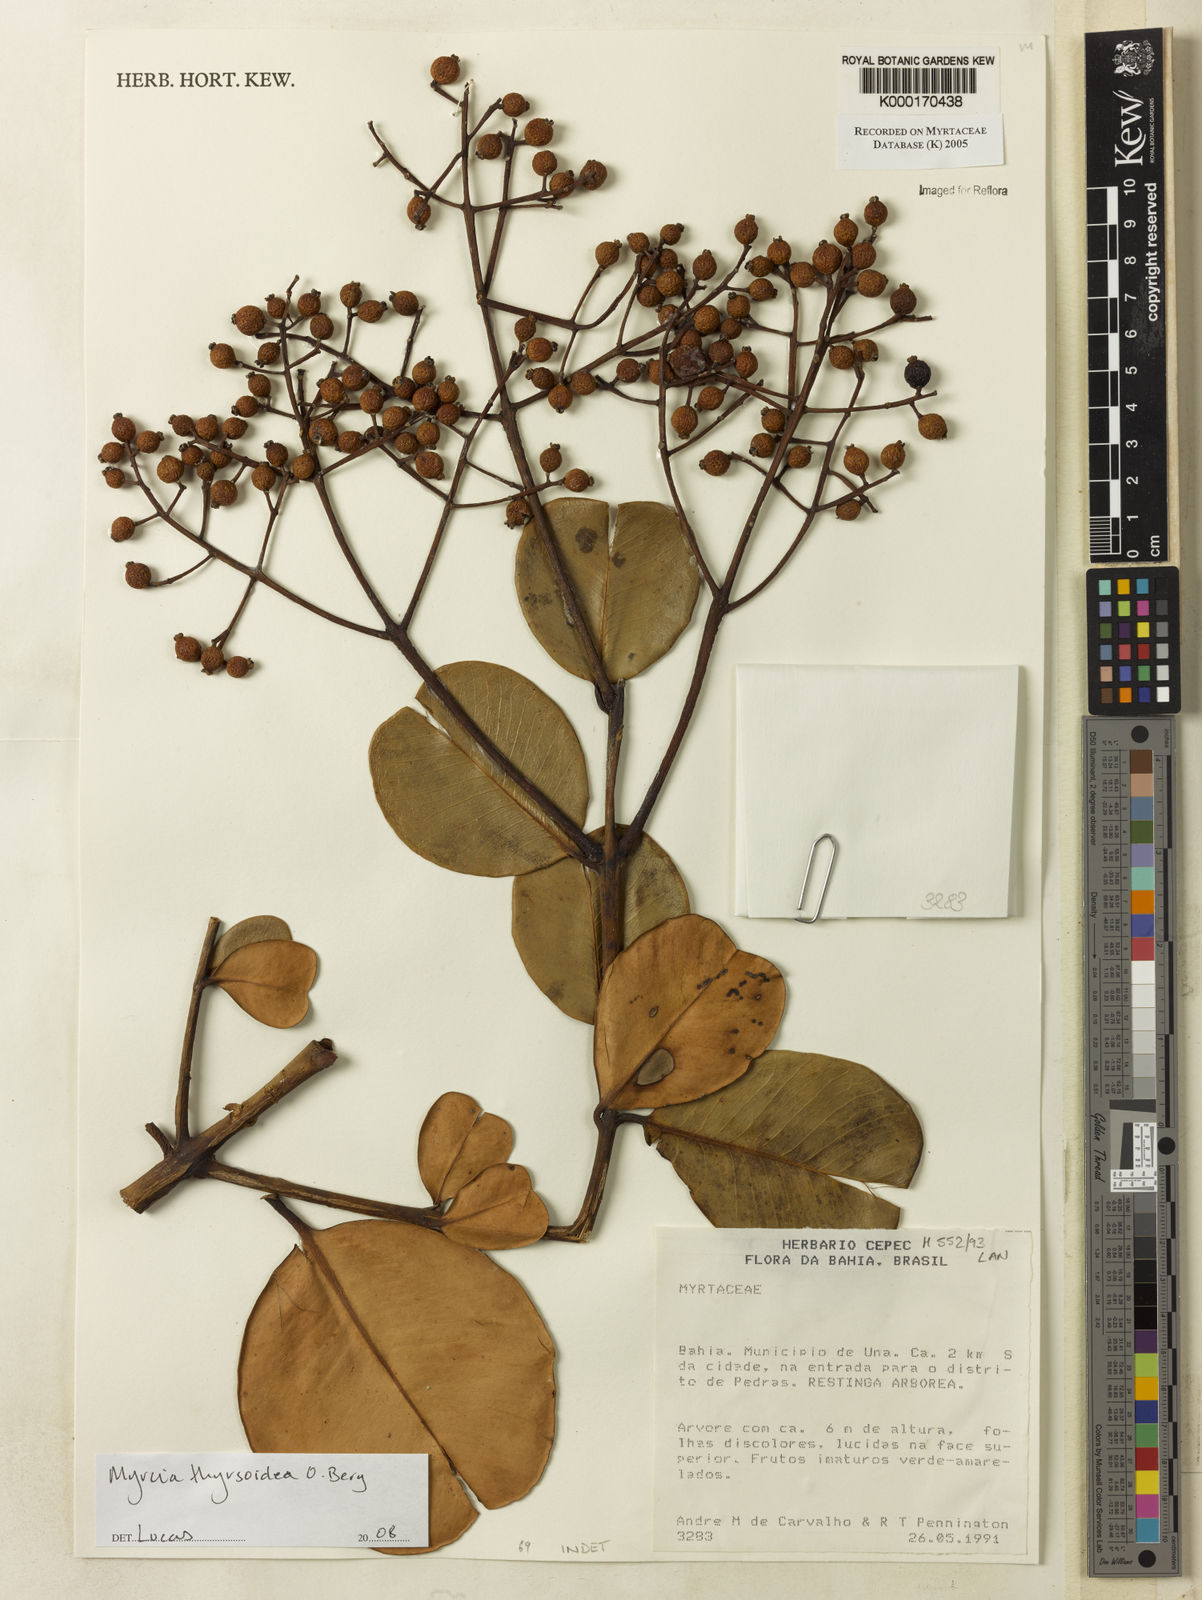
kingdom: Plantae
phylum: Tracheophyta
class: Magnoliopsida
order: Myrtales
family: Myrtaceae
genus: Myrcia
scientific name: Myrcia obovata
